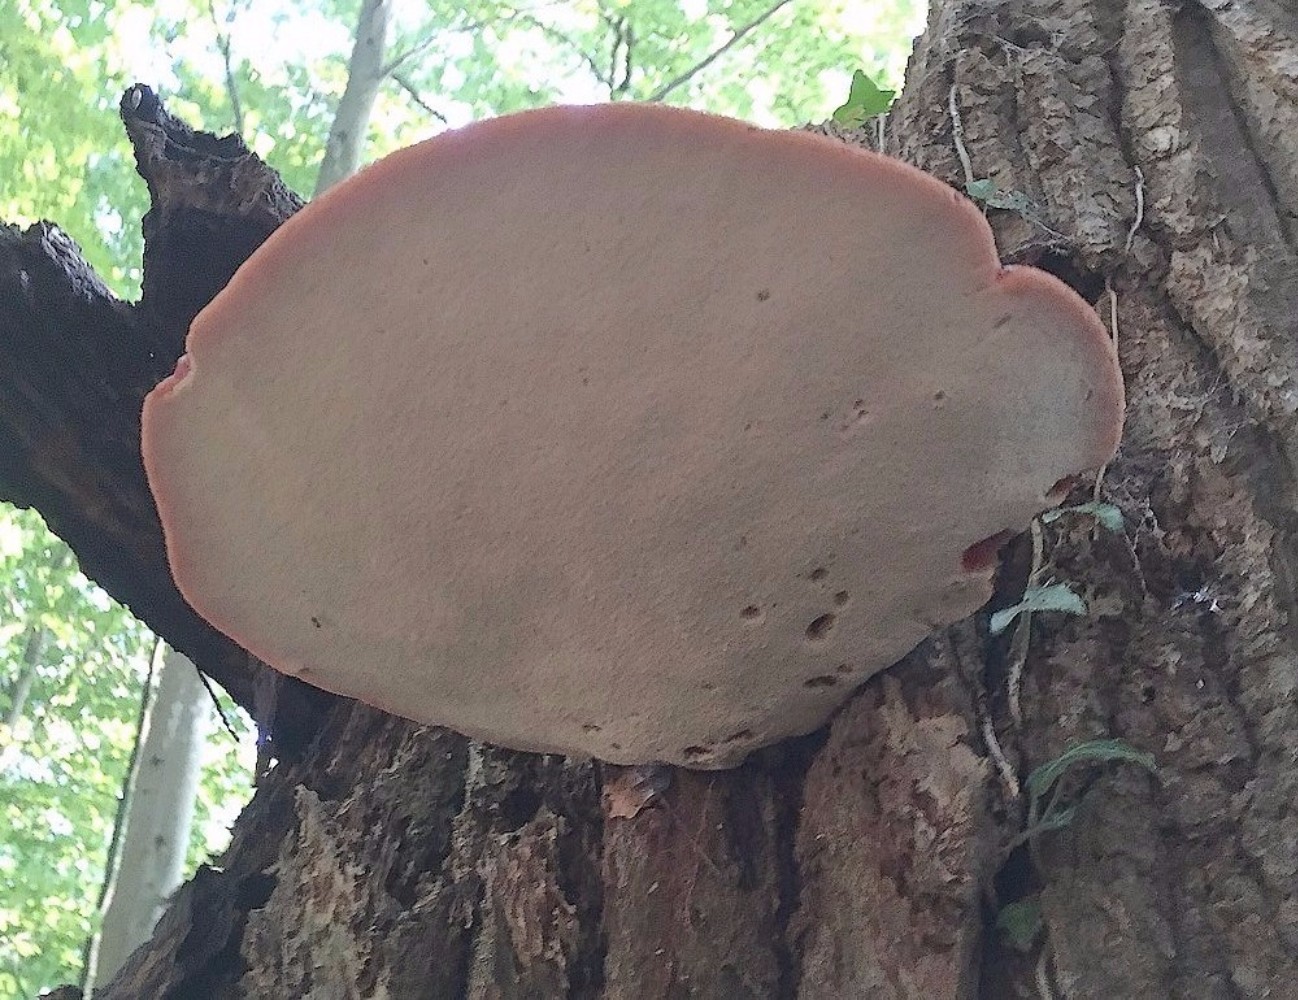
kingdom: Fungi
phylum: Basidiomycota
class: Agaricomycetes
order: Agaricales
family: Fistulinaceae
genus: Fistulina
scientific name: Fistulina hepatica
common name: oksetunge
